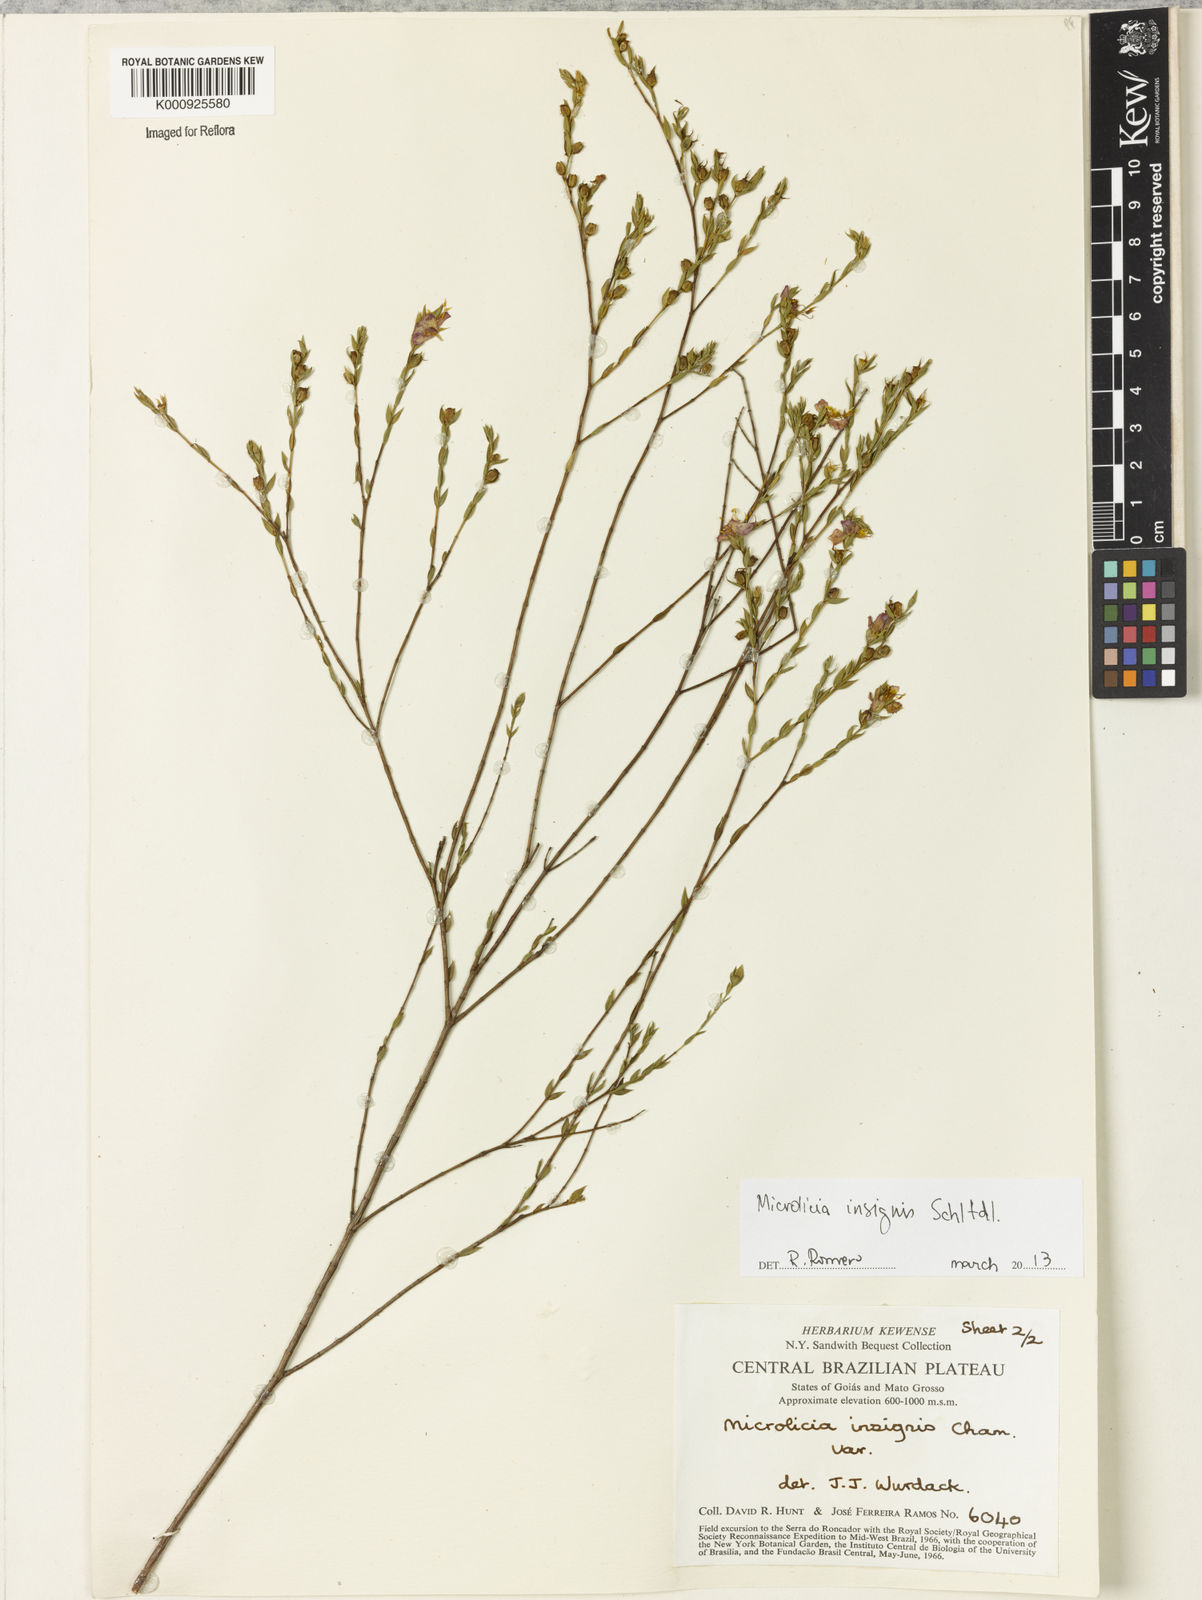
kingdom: Plantae
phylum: Tracheophyta
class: Magnoliopsida
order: Myrtales
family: Melastomataceae
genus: Microlicia
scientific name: Microlicia
